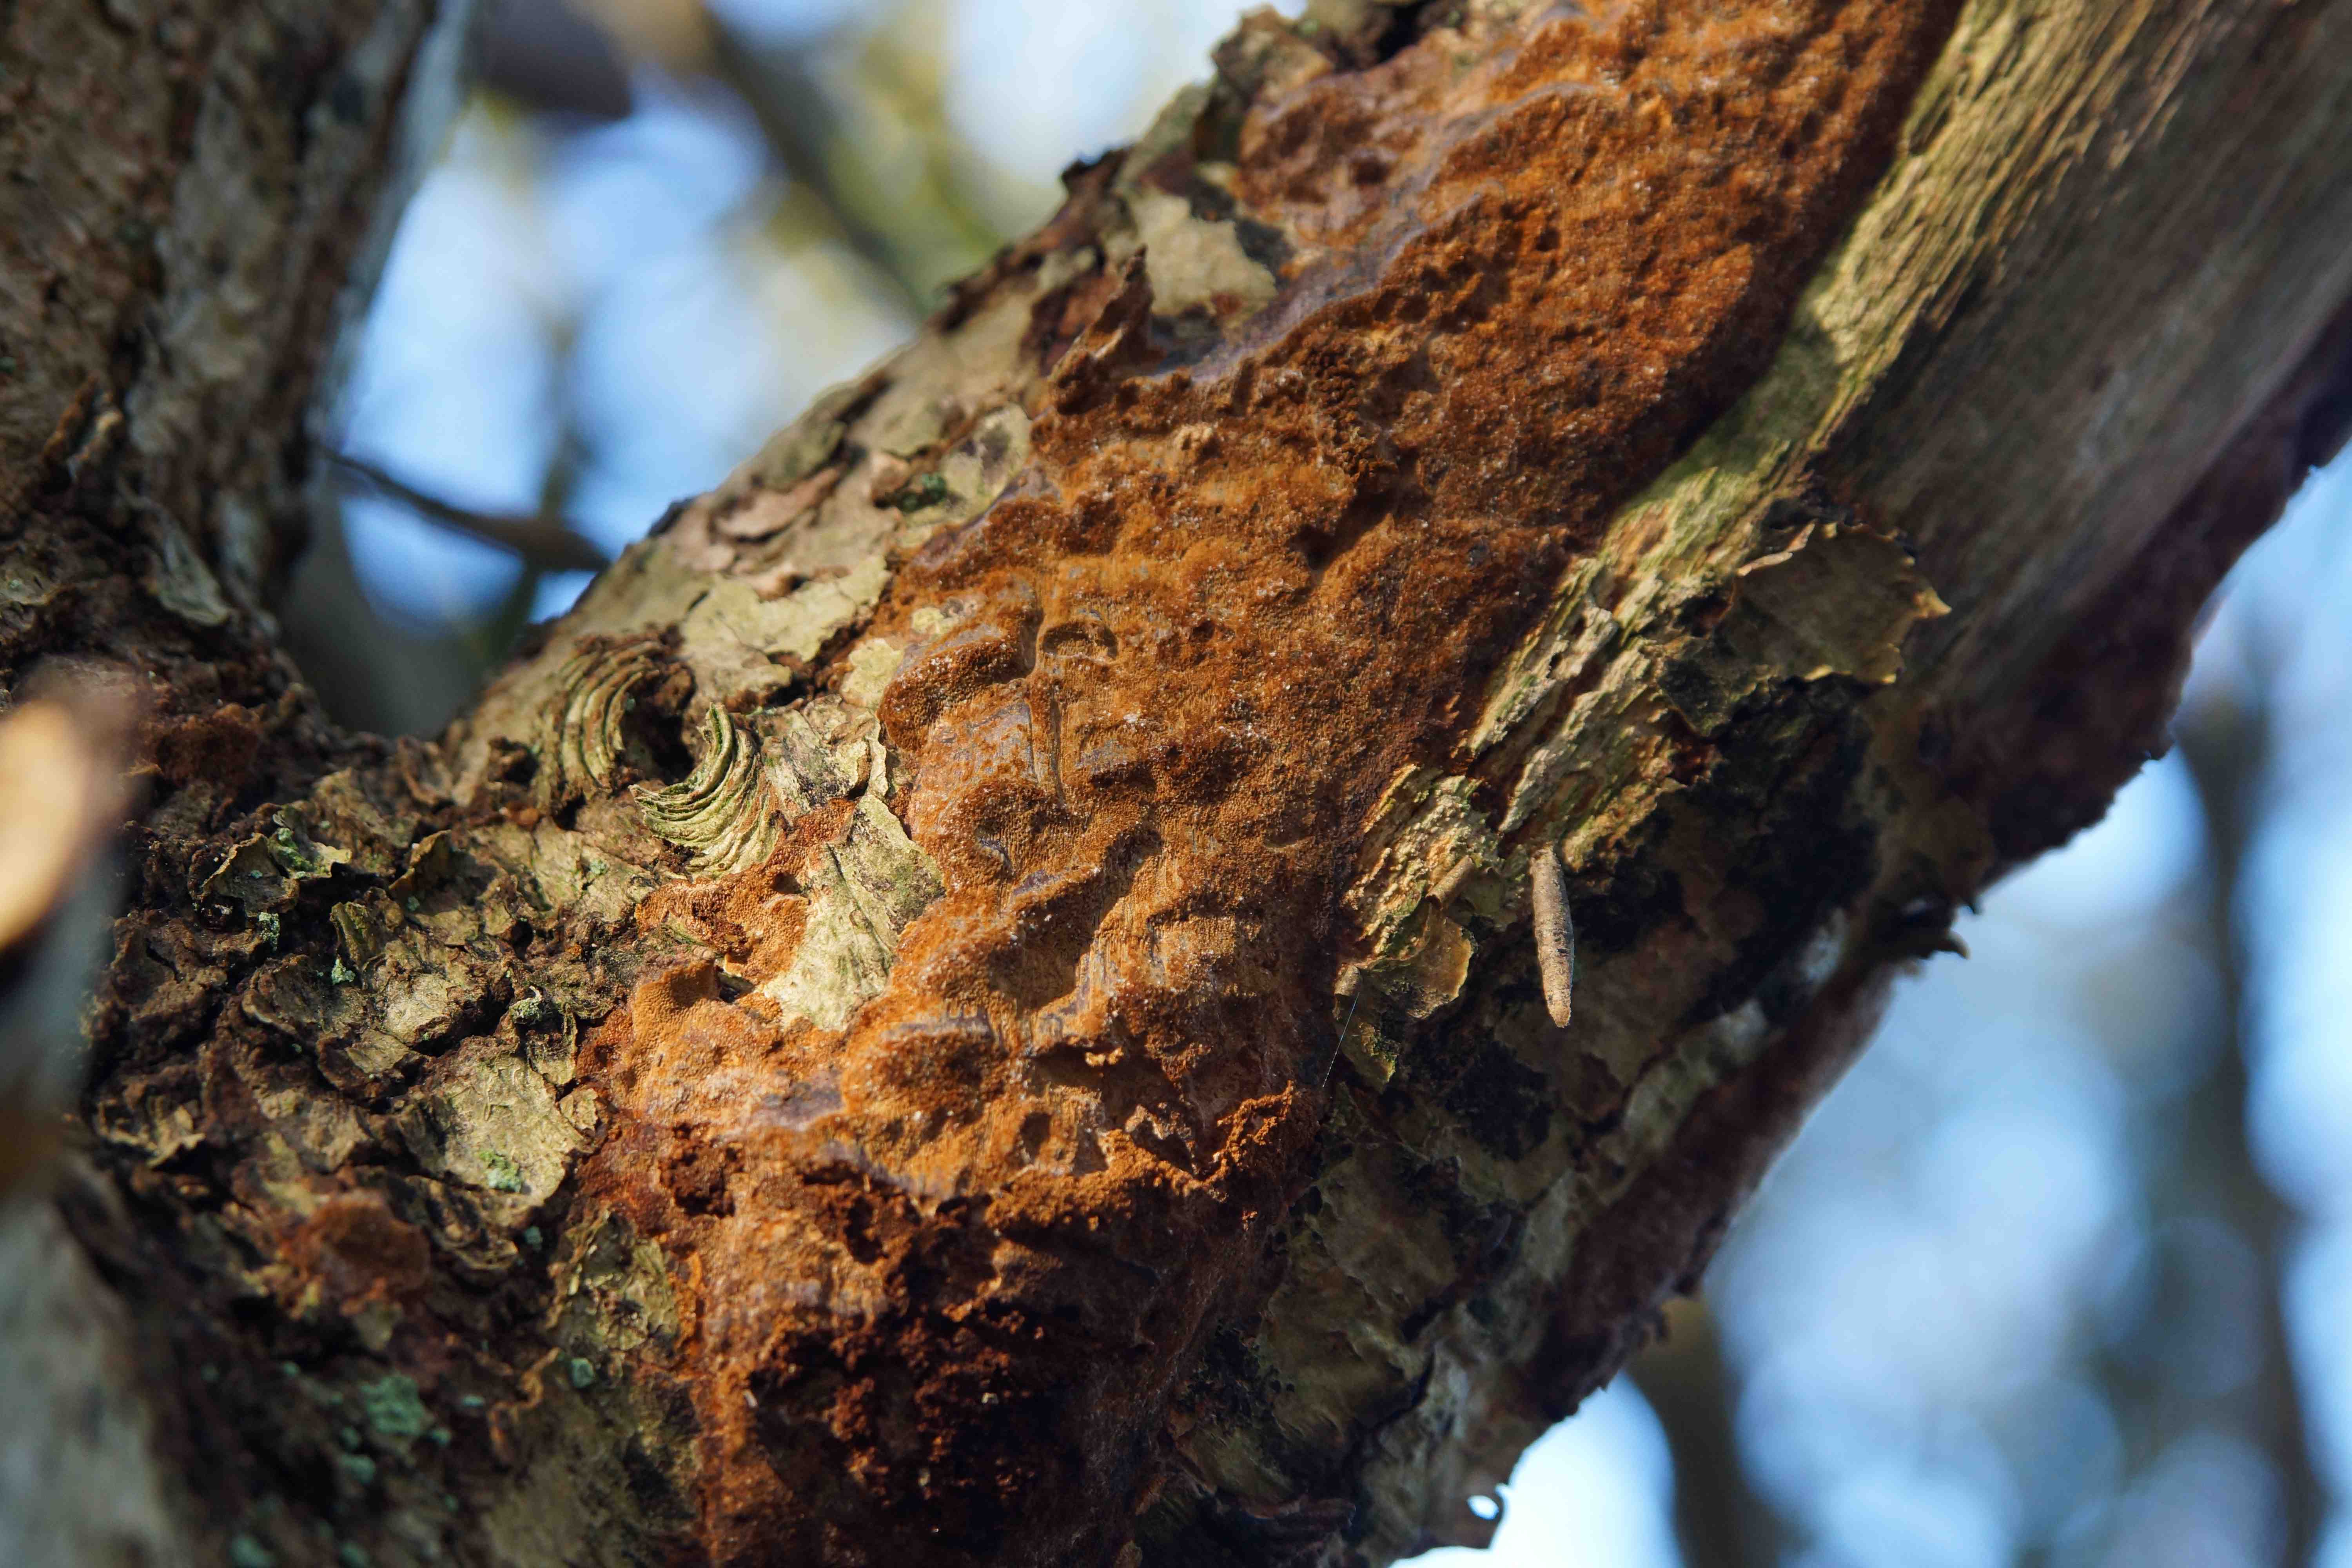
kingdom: Fungi
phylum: Basidiomycota
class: Agaricomycetes
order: Hymenochaetales
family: Hymenochaetaceae
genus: Fuscoporia
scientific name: Fuscoporia ferrea
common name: skorpe-ildporesvamp
